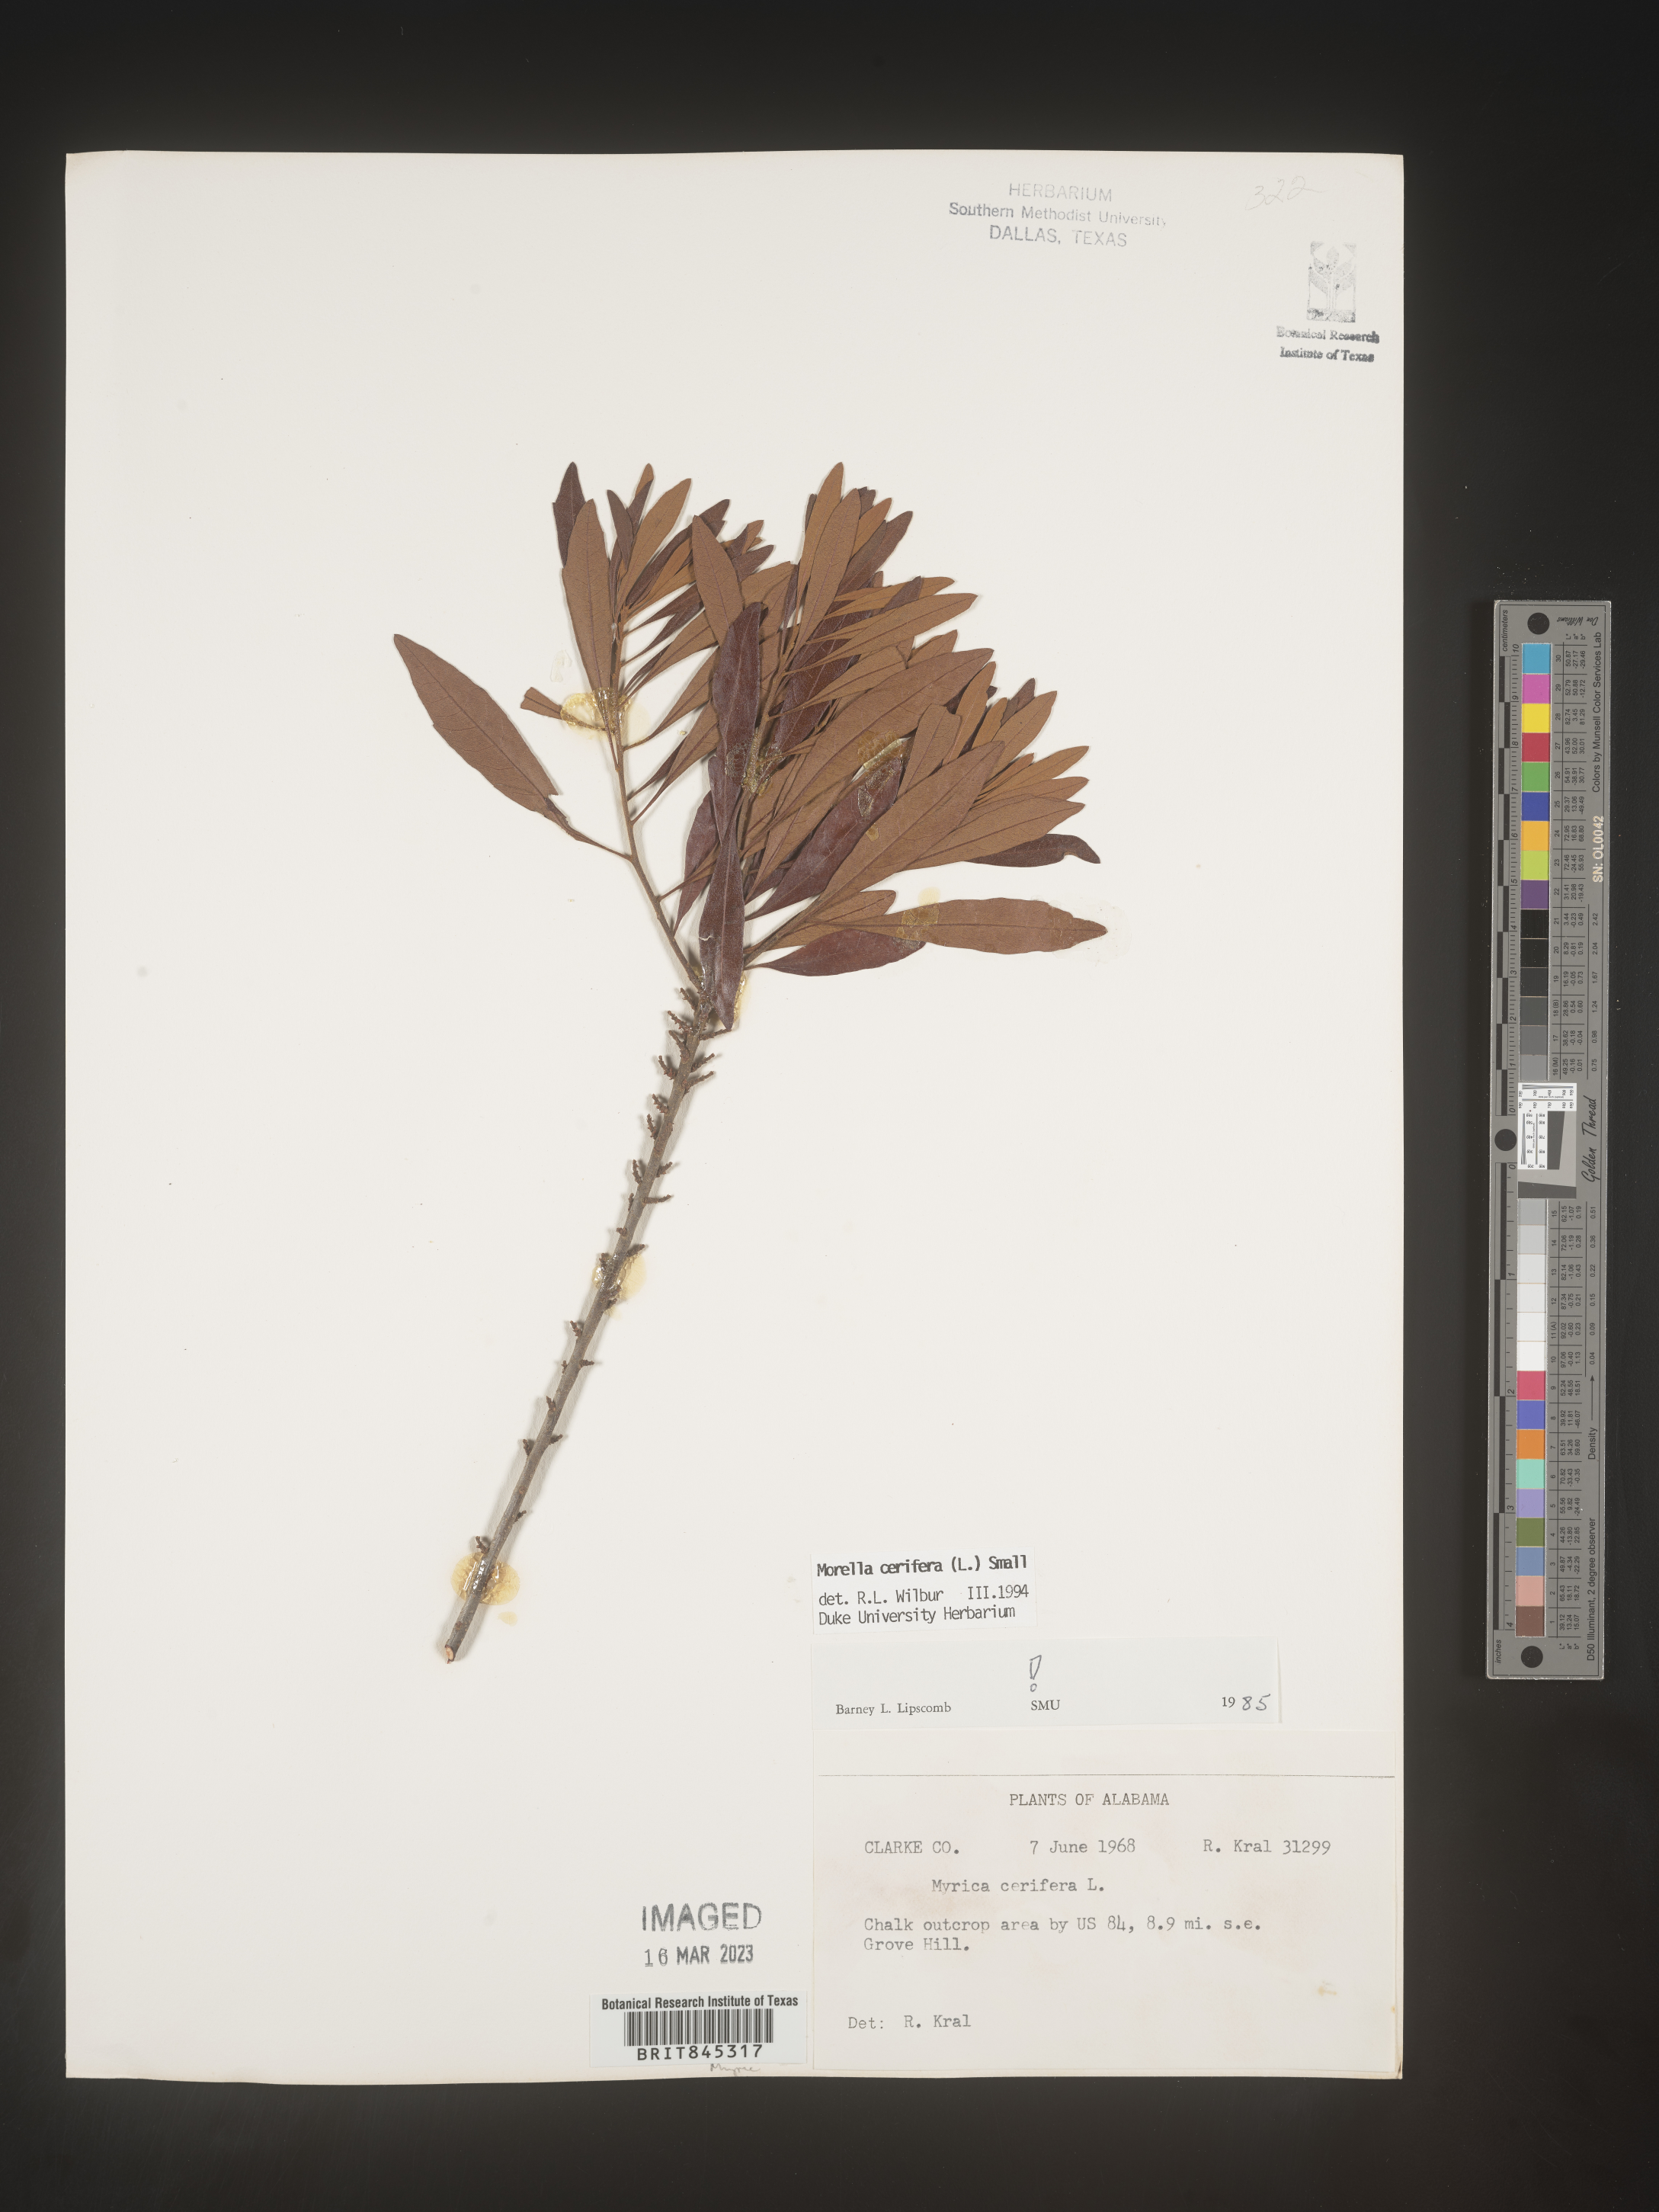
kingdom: Plantae
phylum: Tracheophyta
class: Magnoliopsida
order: Fagales
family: Myricaceae
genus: Morella
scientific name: Morella cerifera
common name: Wax myrtle
